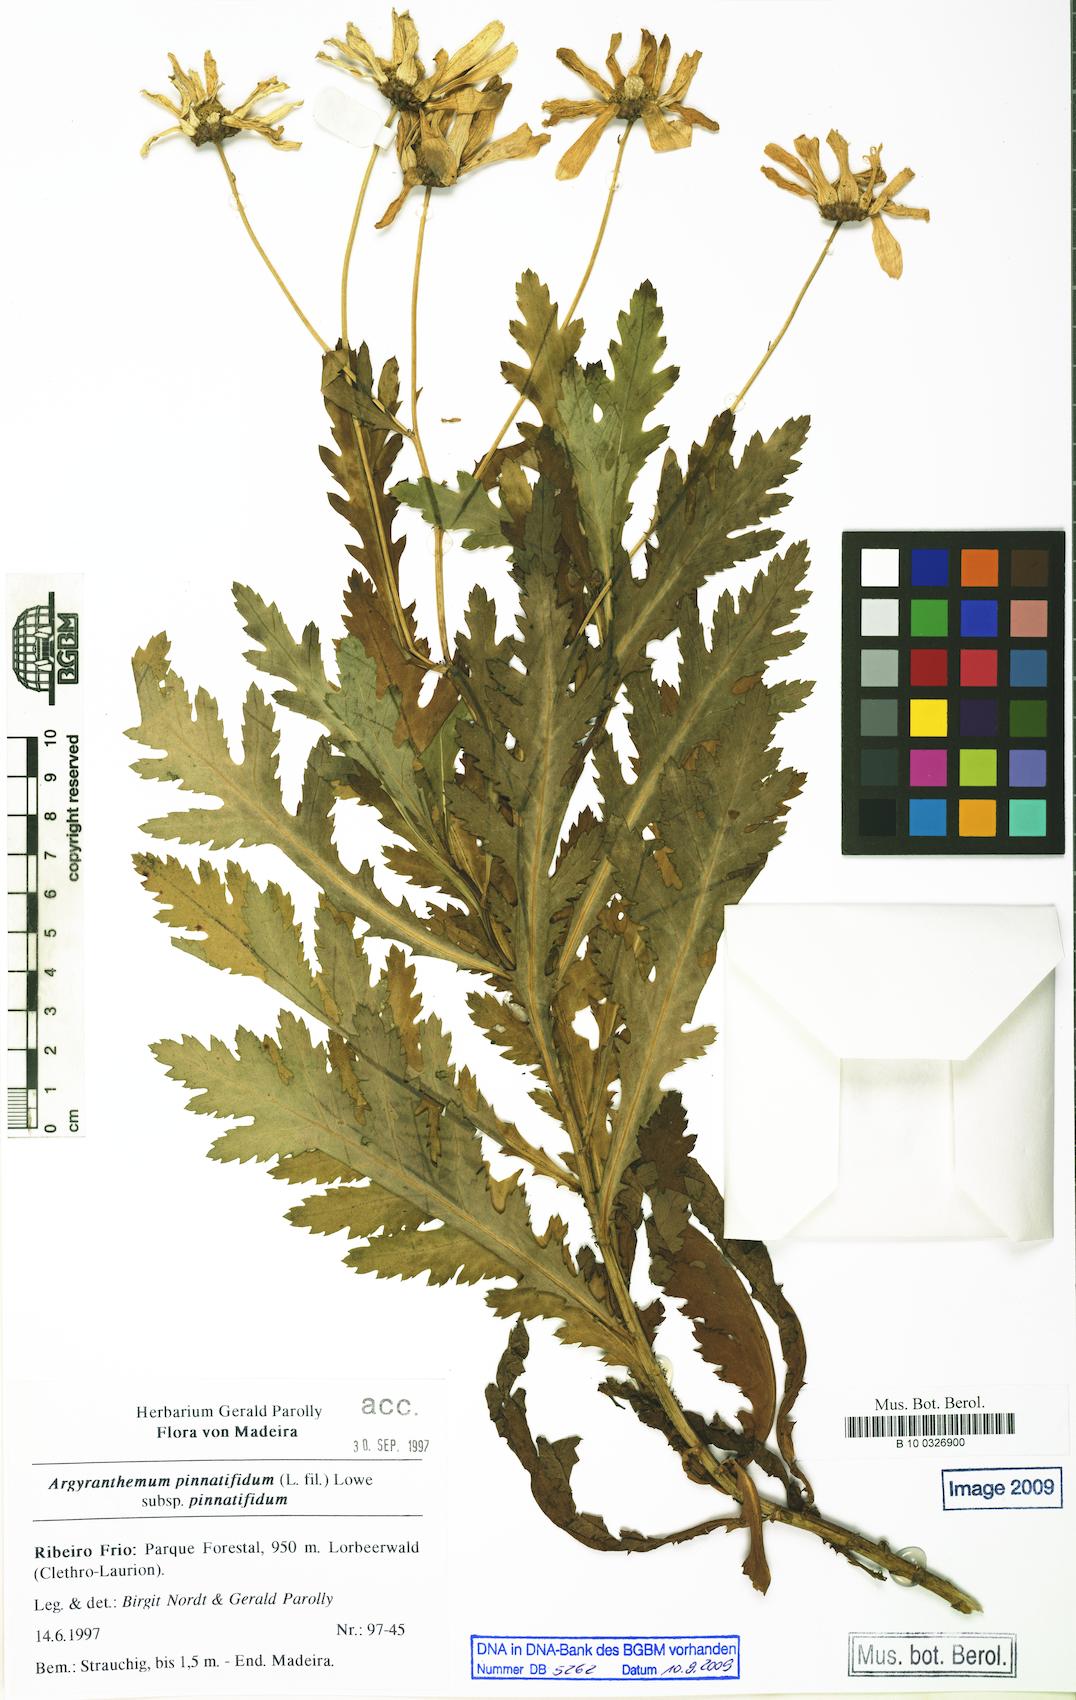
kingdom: Plantae
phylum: Tracheophyta
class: Magnoliopsida
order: Asterales
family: Asteraceae
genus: Argyranthemum
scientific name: Argyranthemum pinnatifidum
